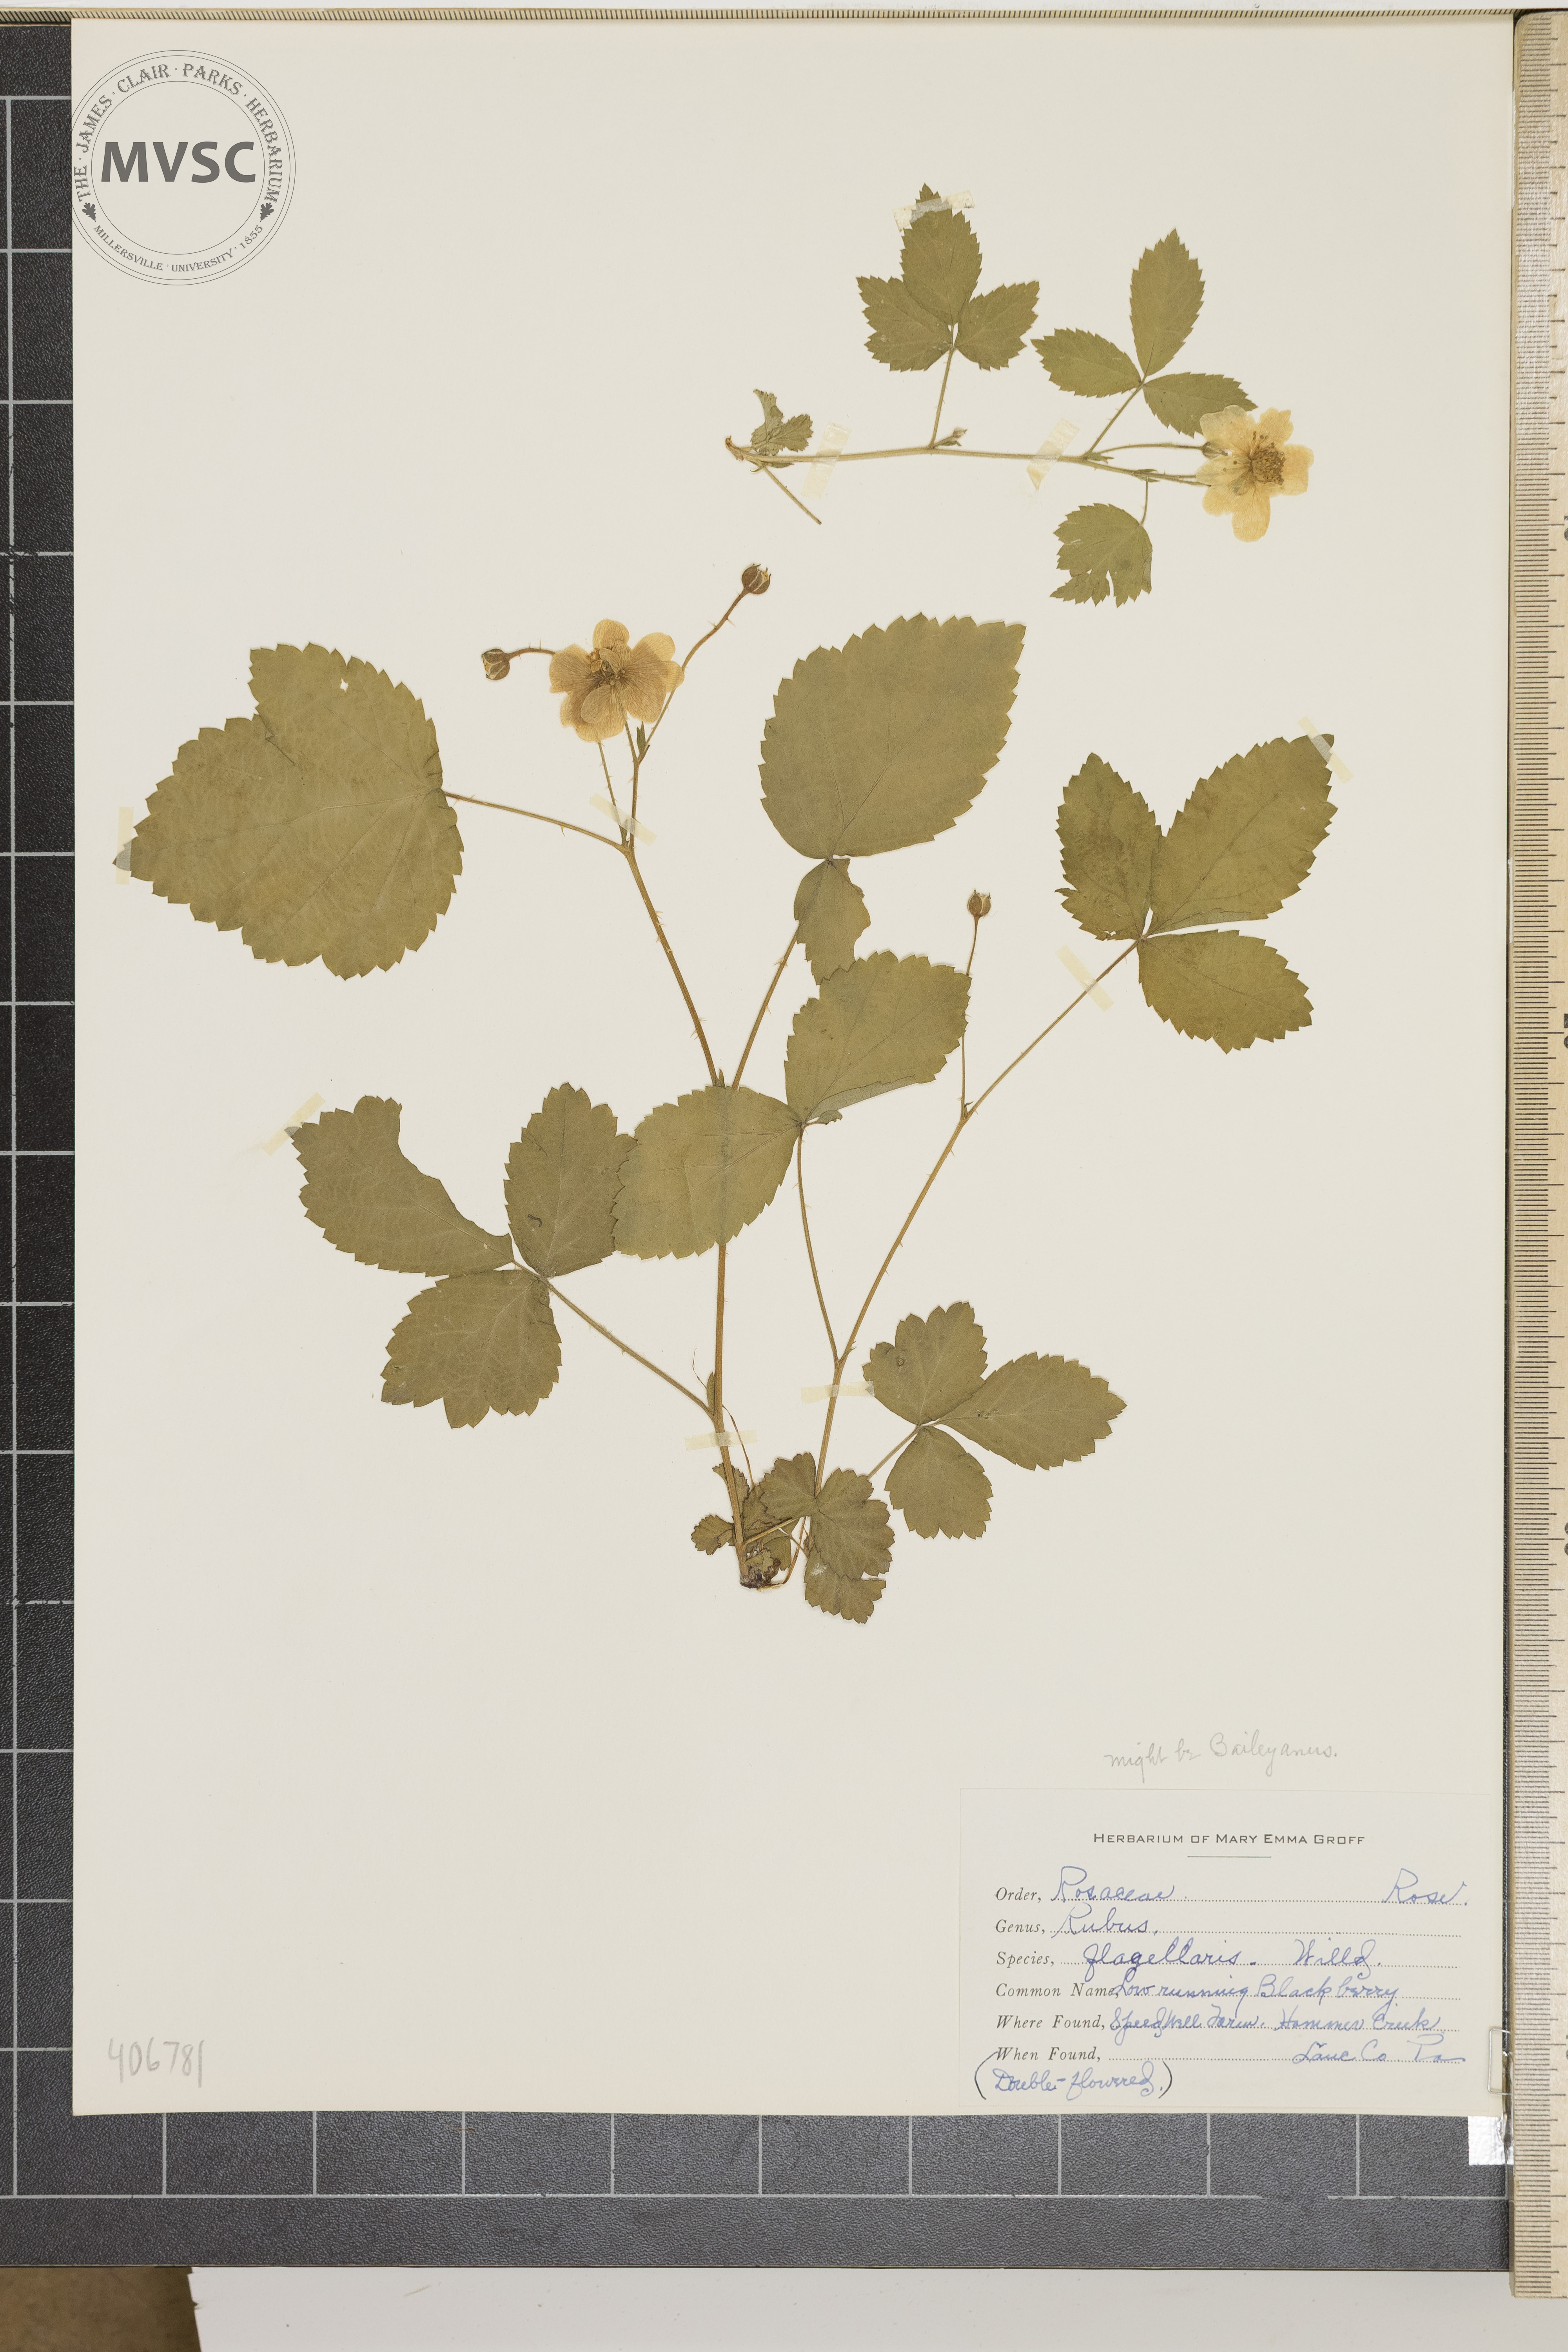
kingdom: Plantae
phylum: Tracheophyta
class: Magnoliopsida
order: Rosales
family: Rosaceae
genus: Rubus
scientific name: Rubus flagellaris
